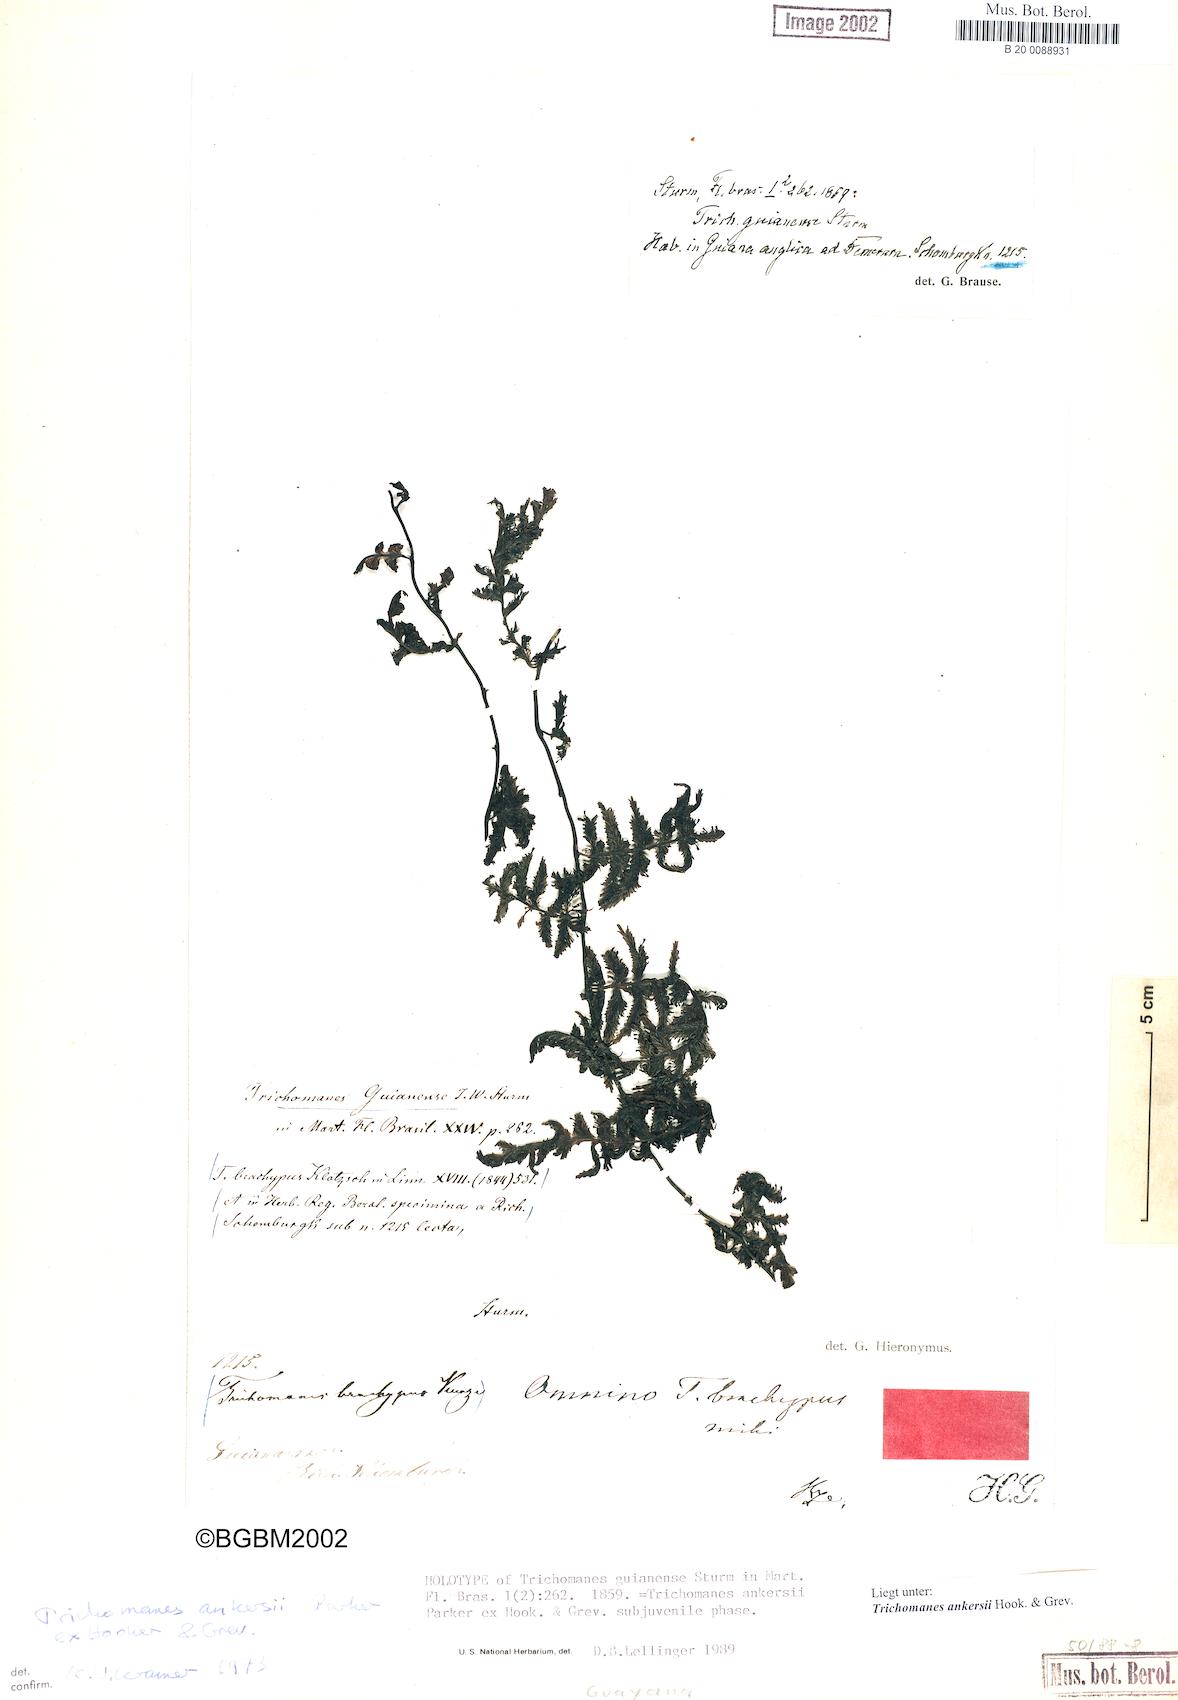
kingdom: Plantae
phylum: Tracheophyta
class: Polypodiopsida
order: Hymenophyllales
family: Hymenophyllaceae
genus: Trichomanes
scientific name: Trichomanes ankersii
